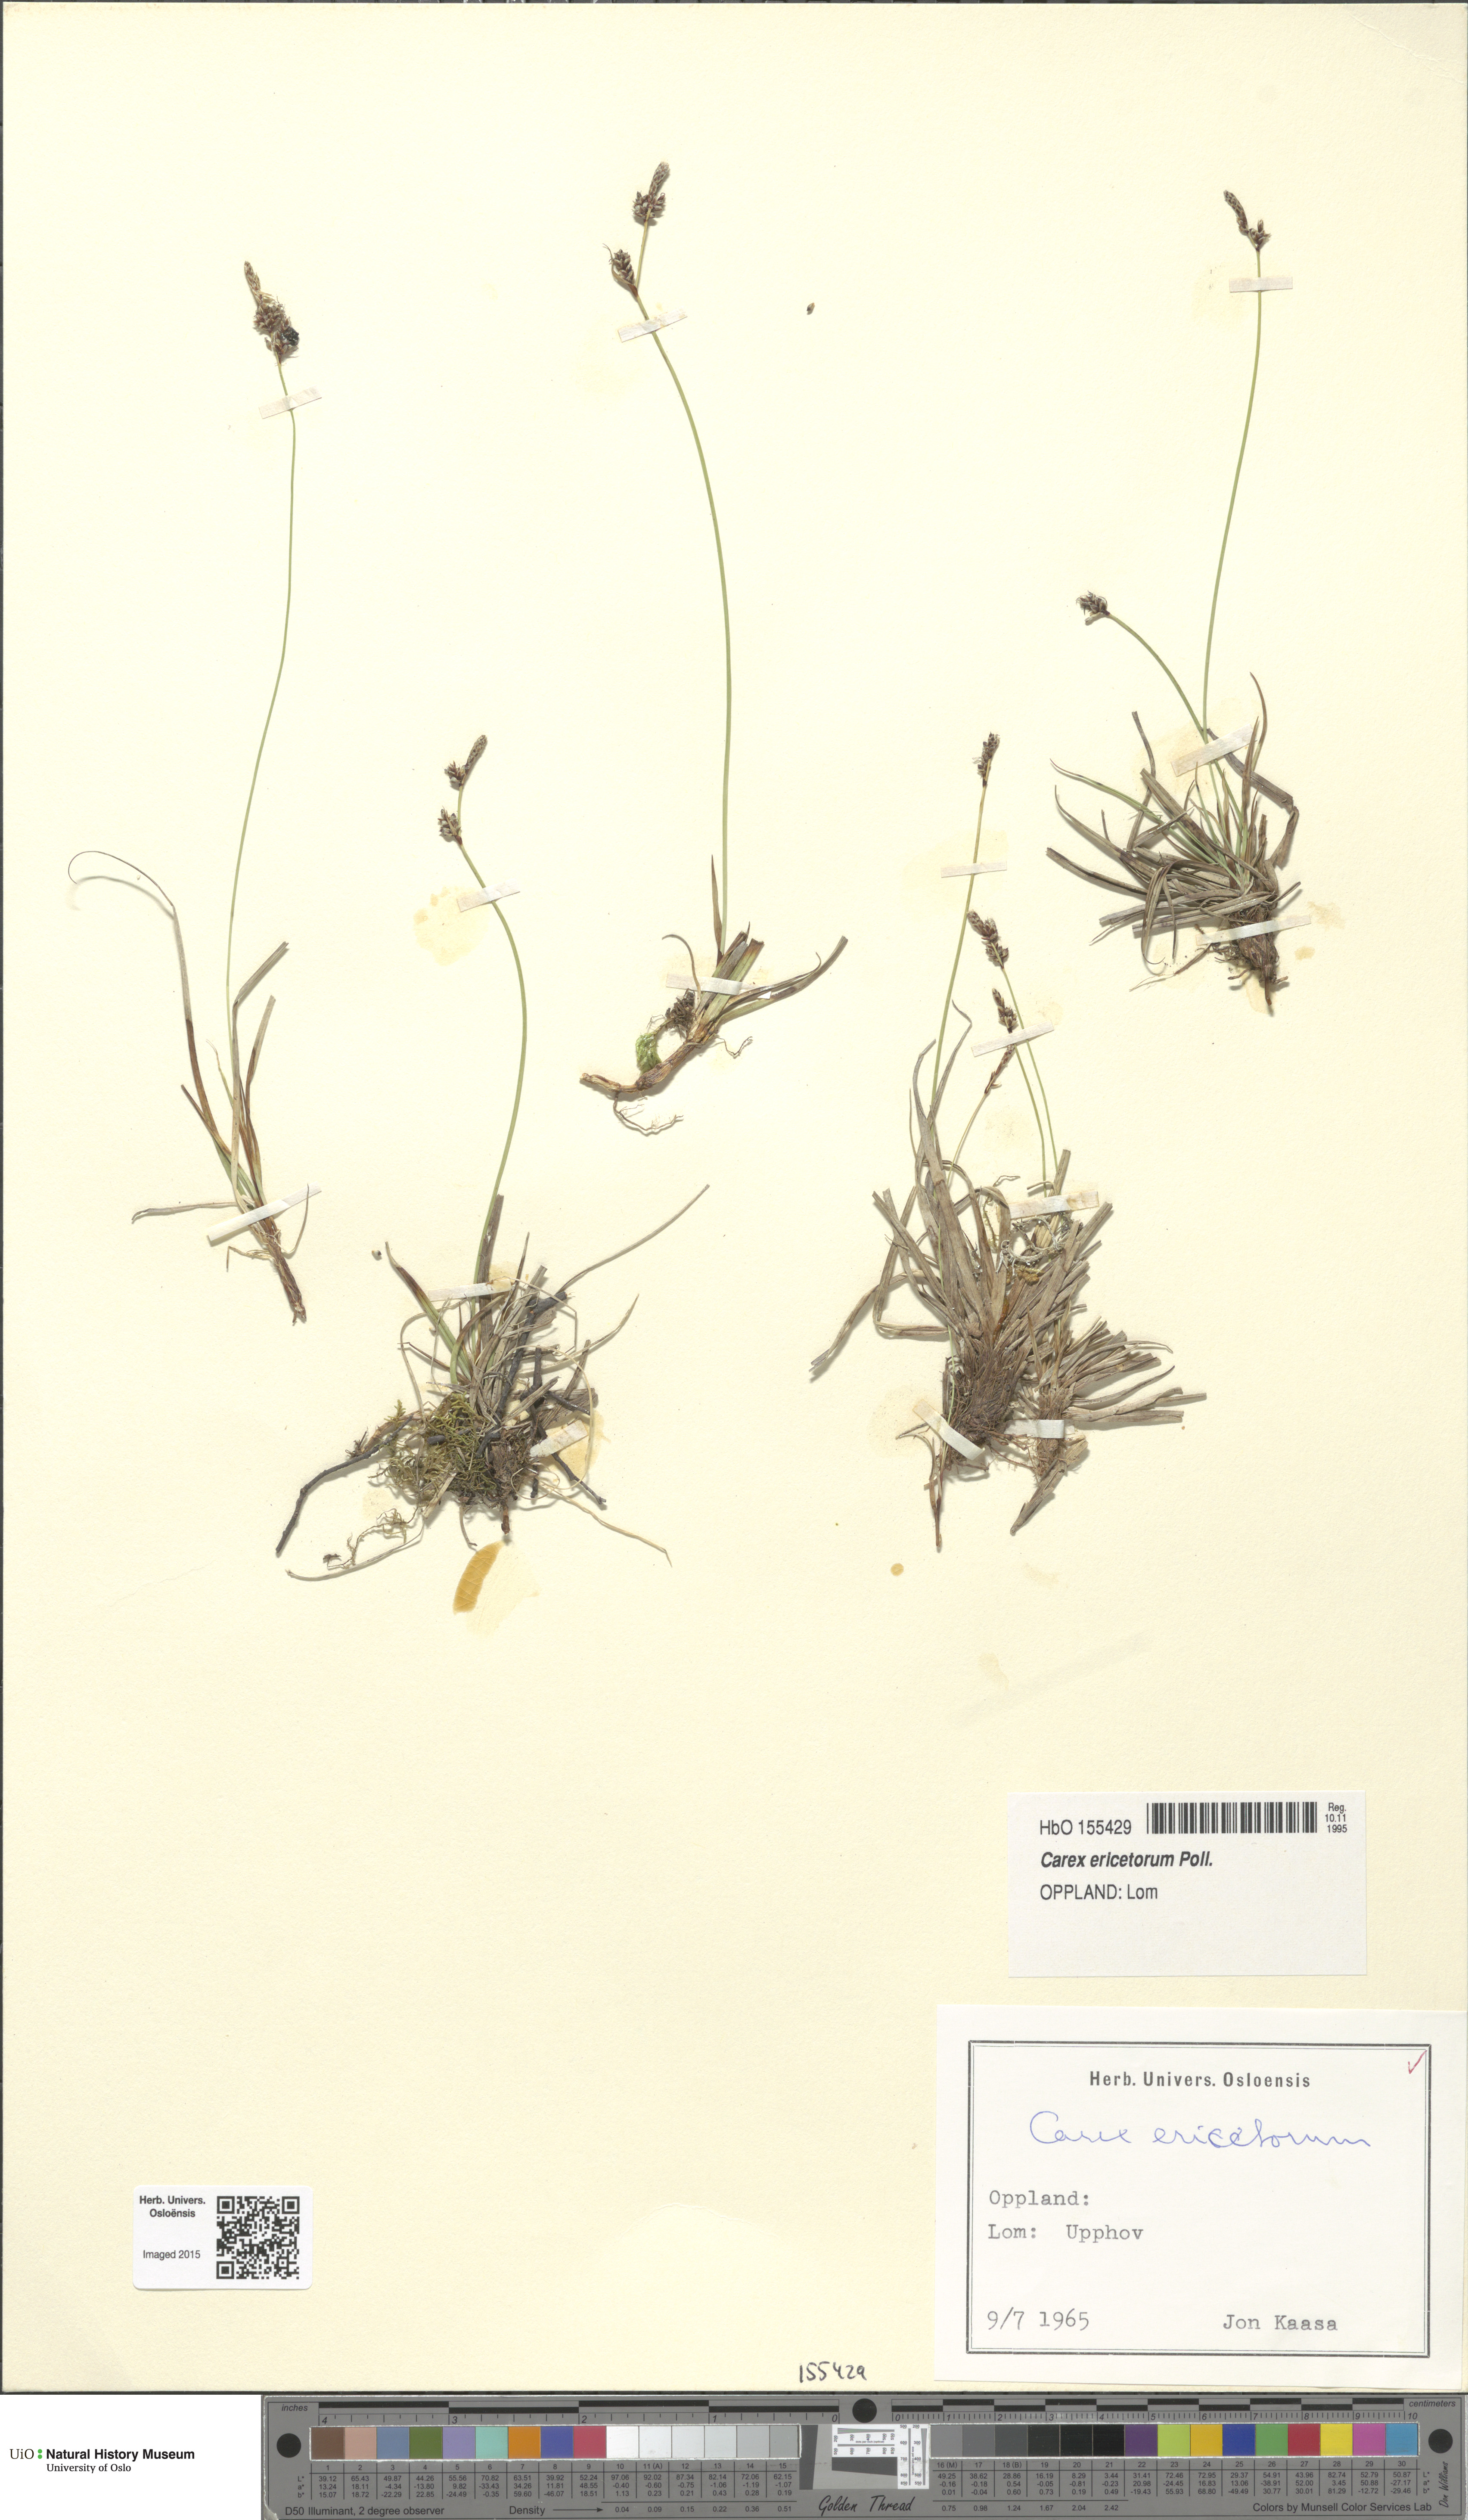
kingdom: Plantae
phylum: Tracheophyta
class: Liliopsida
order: Poales
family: Cyperaceae
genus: Carex
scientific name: Carex ericetorum
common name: Rare spring-sedge
